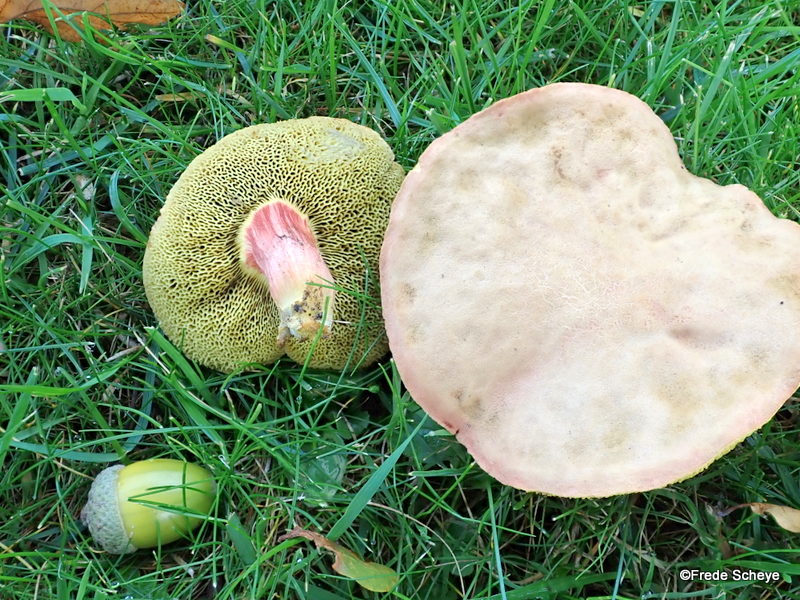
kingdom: Fungi
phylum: Basidiomycota
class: Agaricomycetes
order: Boletales
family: Boletaceae
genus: Xerocomellus
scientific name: Xerocomellus chrysenteron
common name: rødsprukken rørhat
